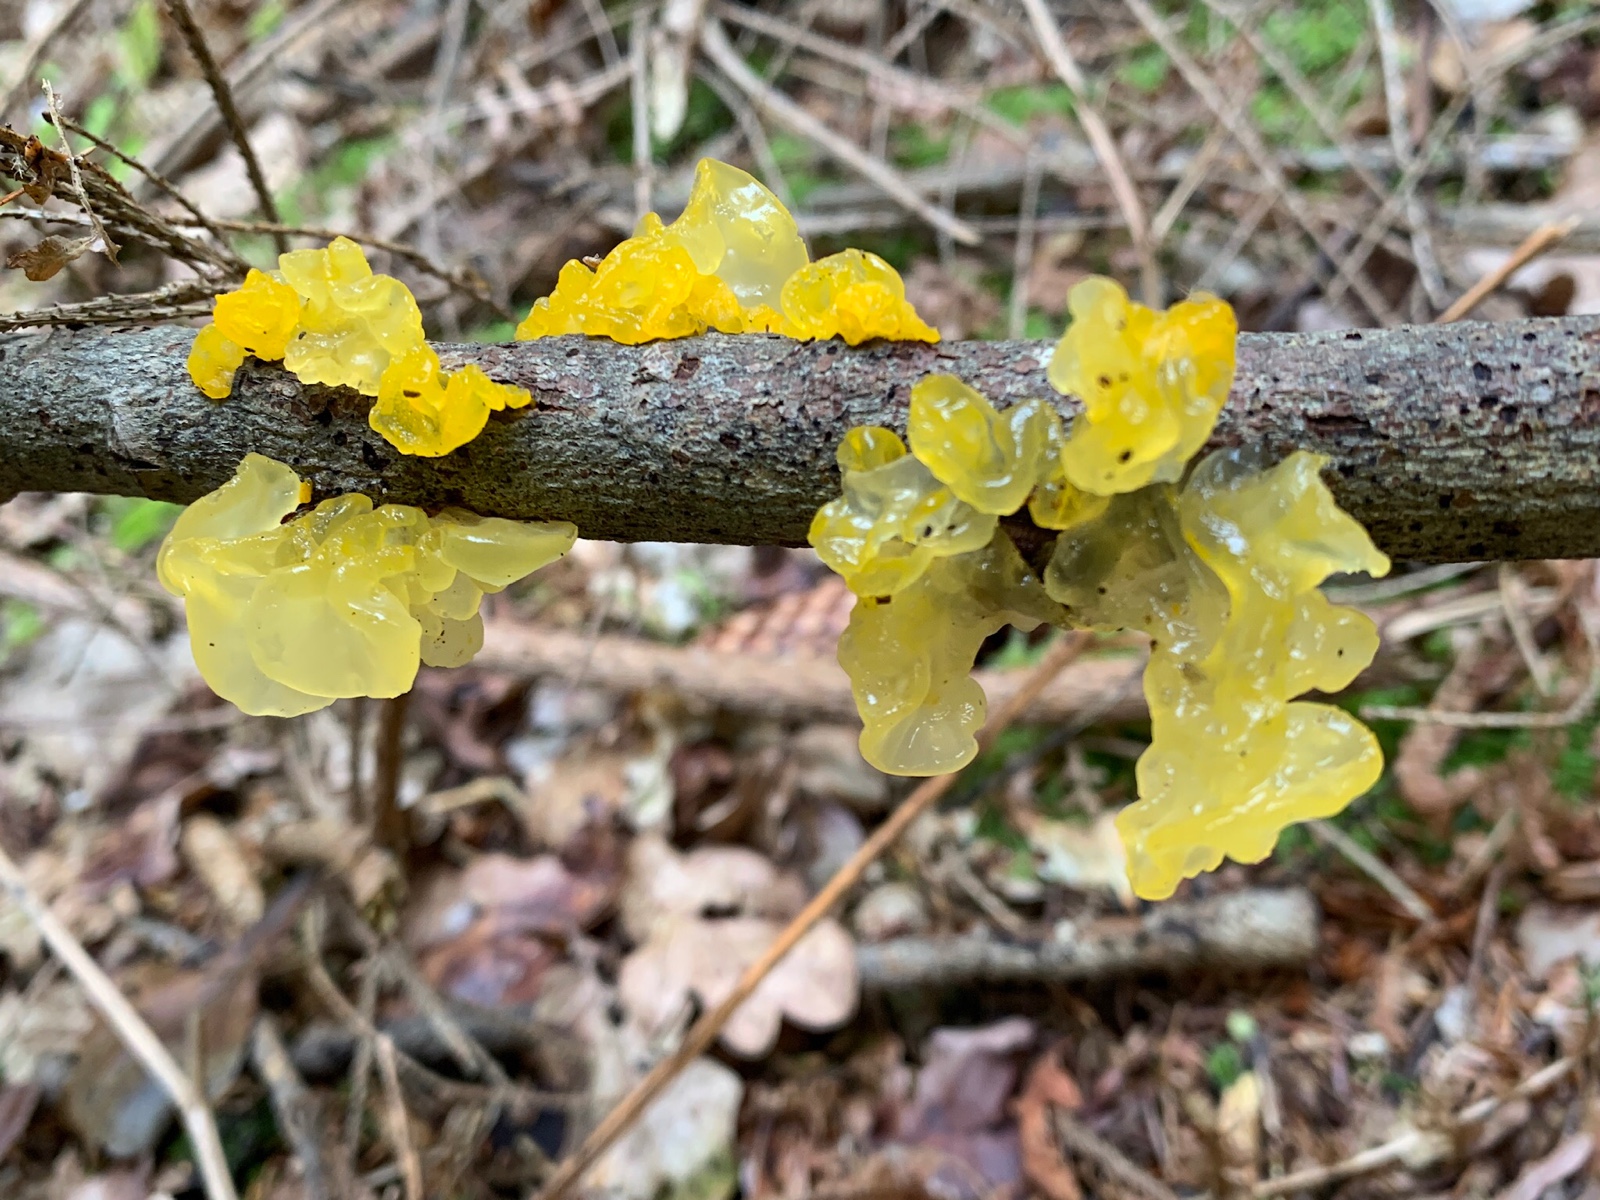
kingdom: Fungi
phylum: Basidiomycota
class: Tremellomycetes
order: Tremellales
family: Tremellaceae
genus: Tremella
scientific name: Tremella mesenterica
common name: gul bævresvamp
